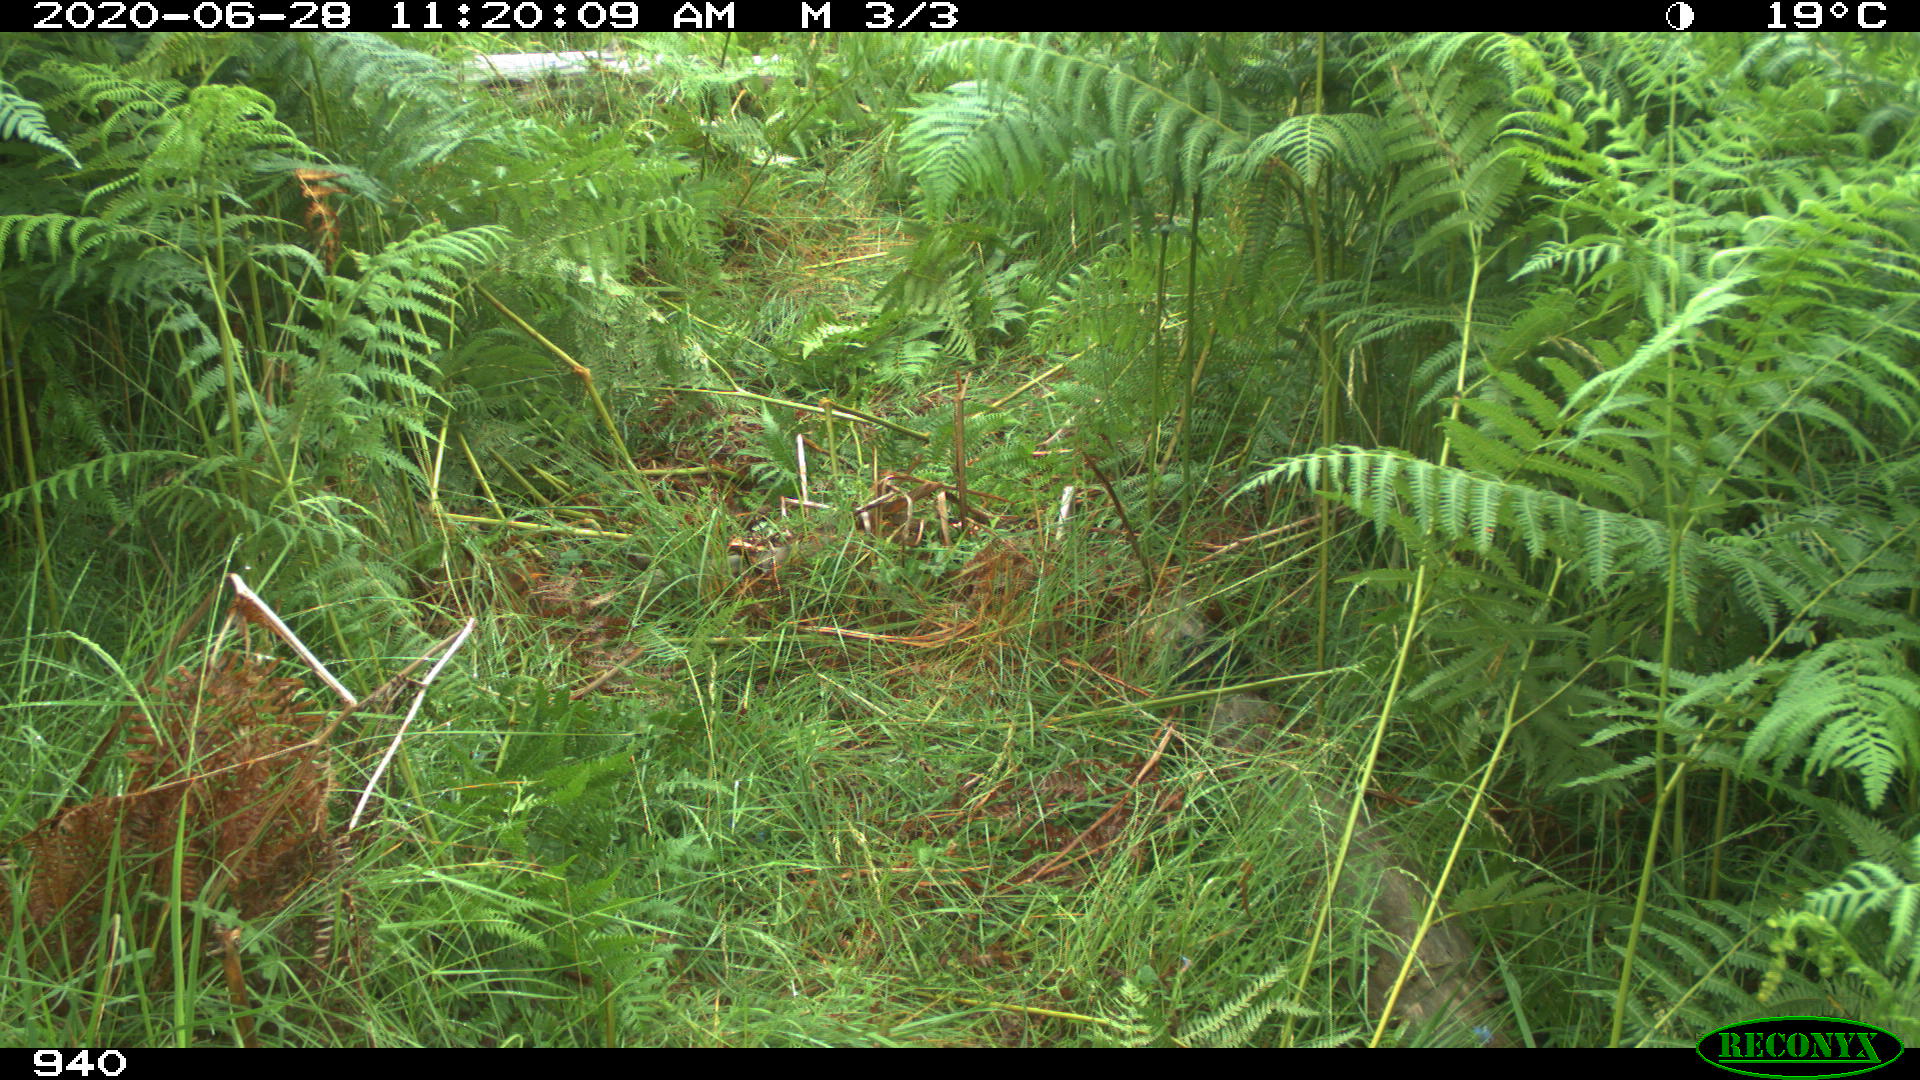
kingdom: Animalia
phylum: Chordata
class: Mammalia
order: Artiodactyla
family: Bovidae
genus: Bos
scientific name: Bos taurus
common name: Domesticated cattle
